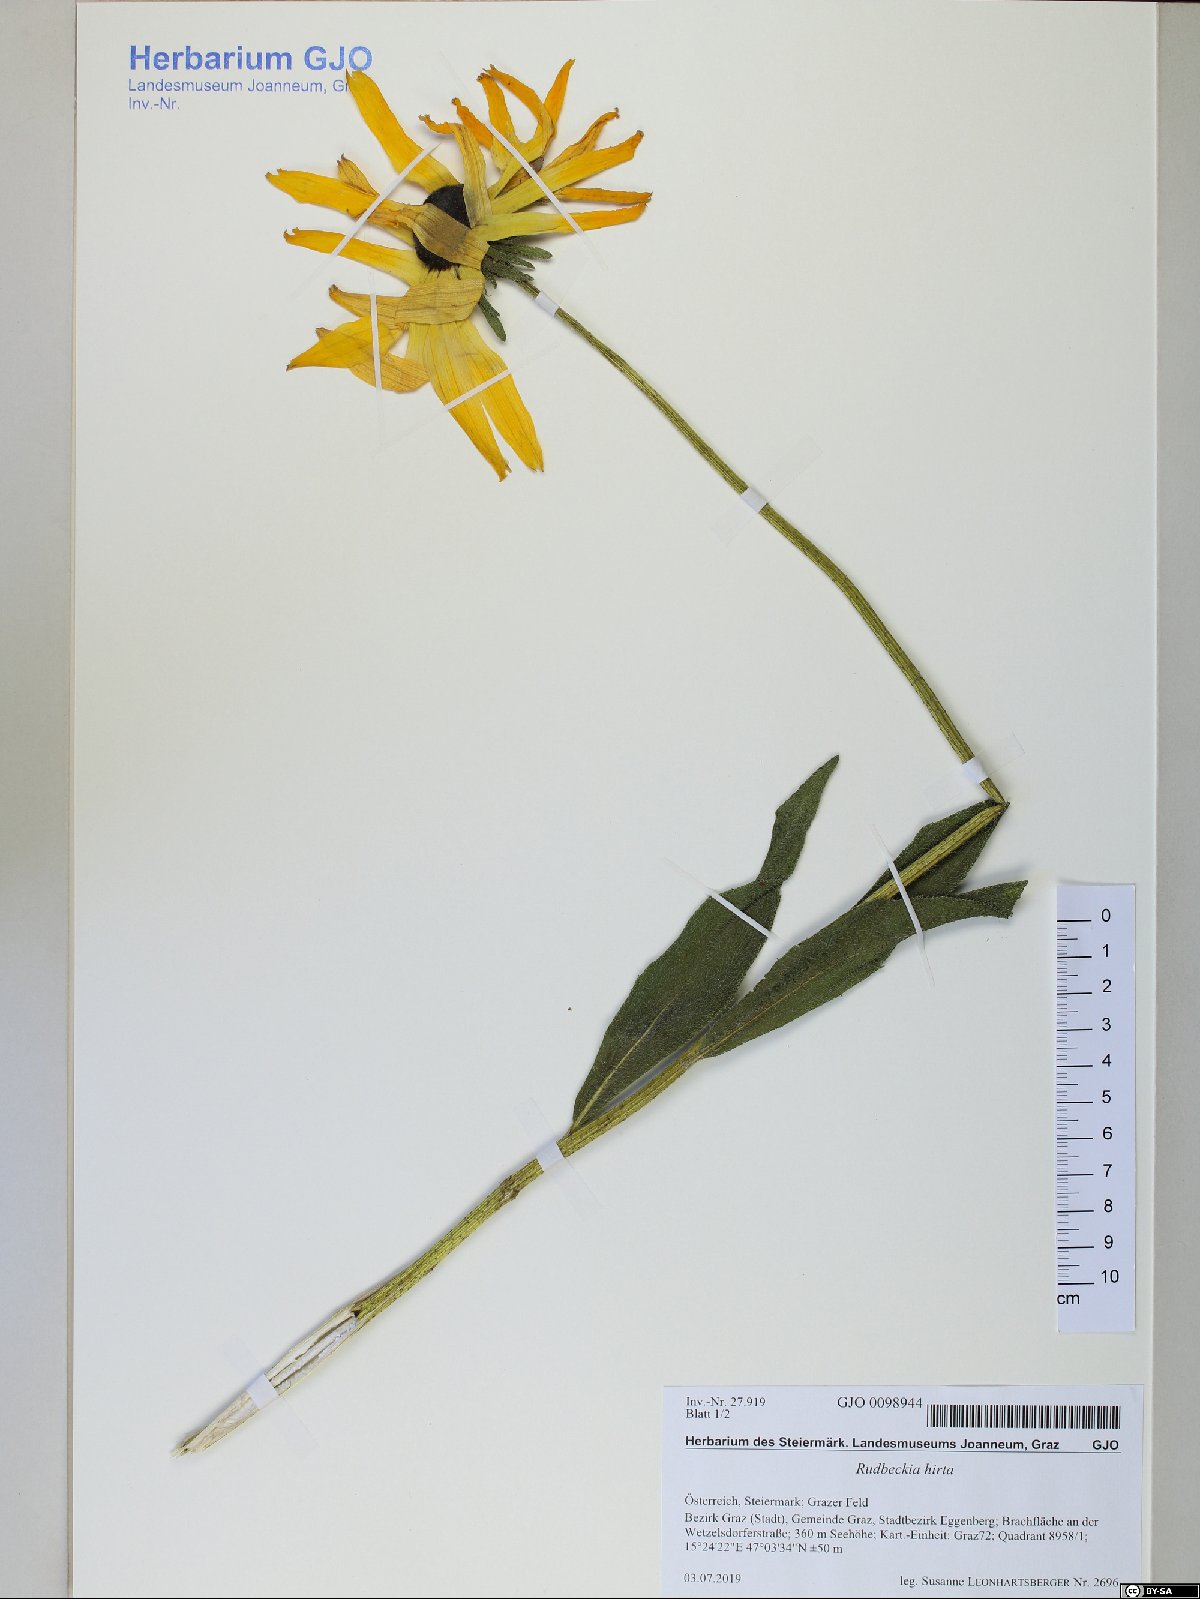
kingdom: Plantae
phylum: Tracheophyta
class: Magnoliopsida
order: Asterales
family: Asteraceae
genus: Rudbeckia
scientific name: Rudbeckia hirta
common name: Black-eyed-susan
